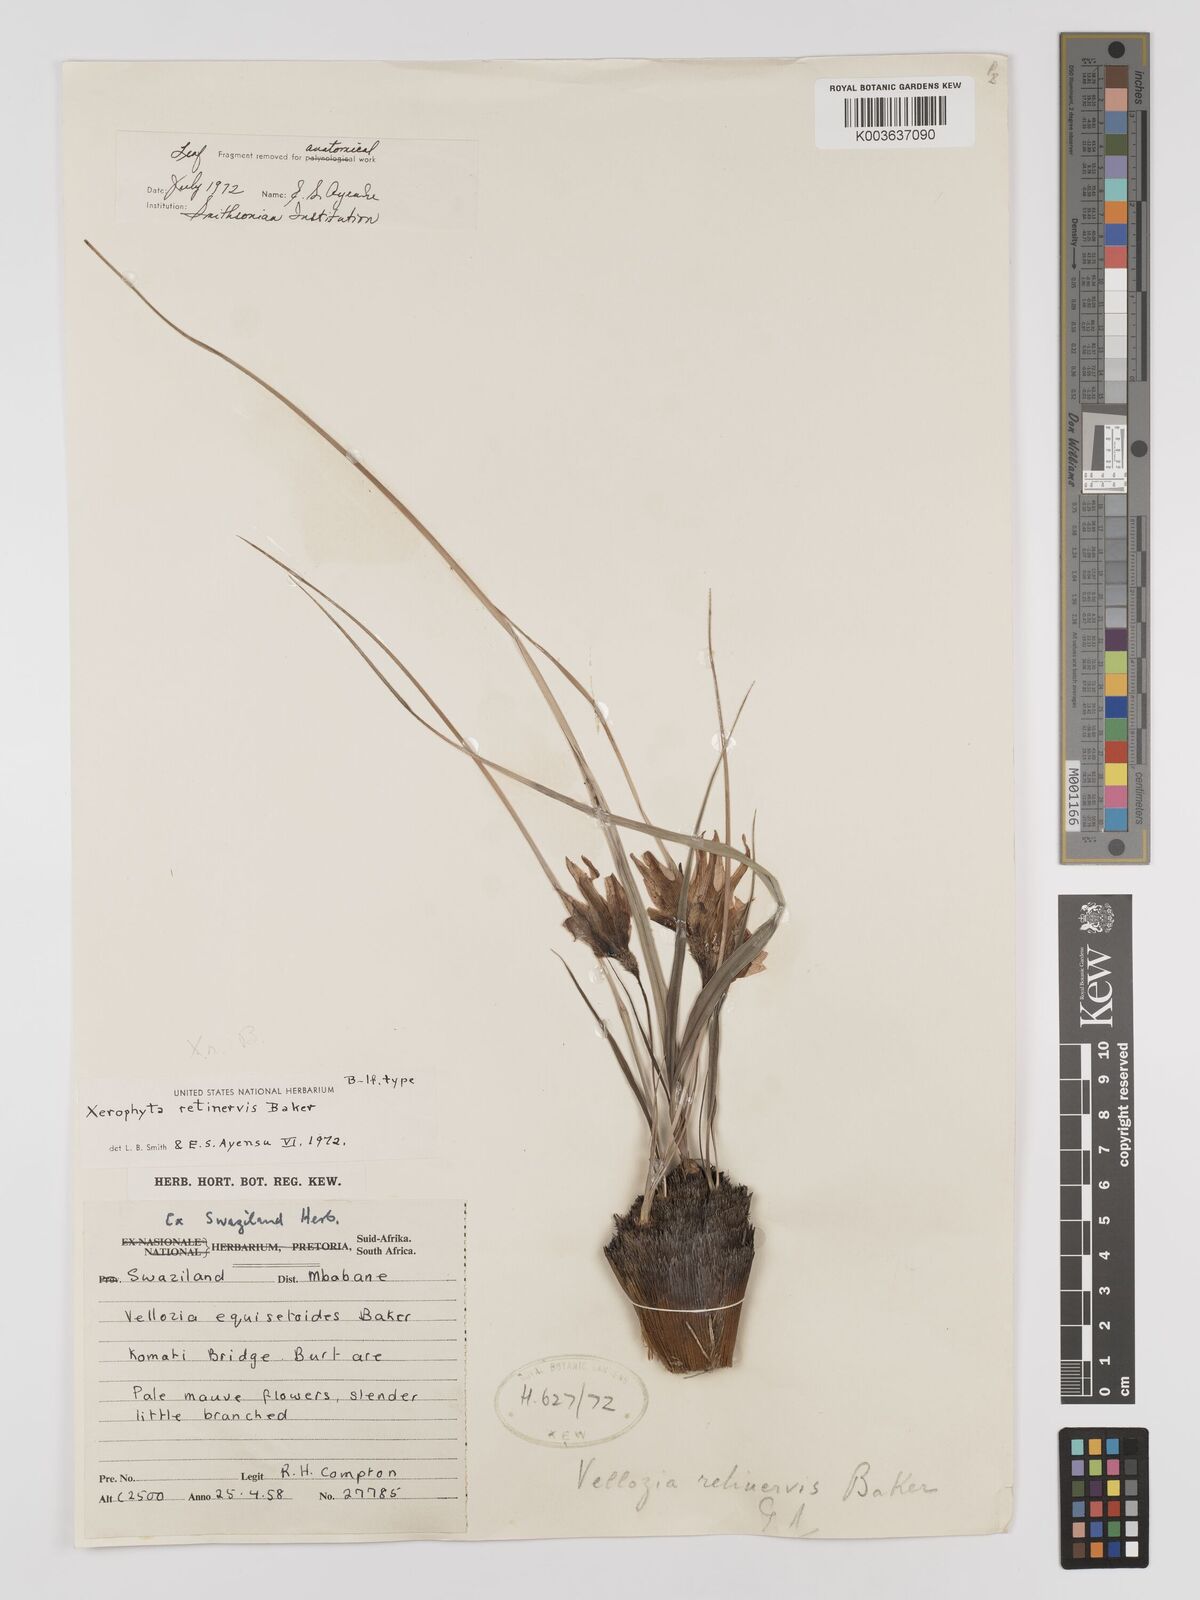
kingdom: Plantae
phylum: Tracheophyta
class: Liliopsida
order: Pandanales
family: Velloziaceae
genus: Xerophyta
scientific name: Xerophyta retinervis
